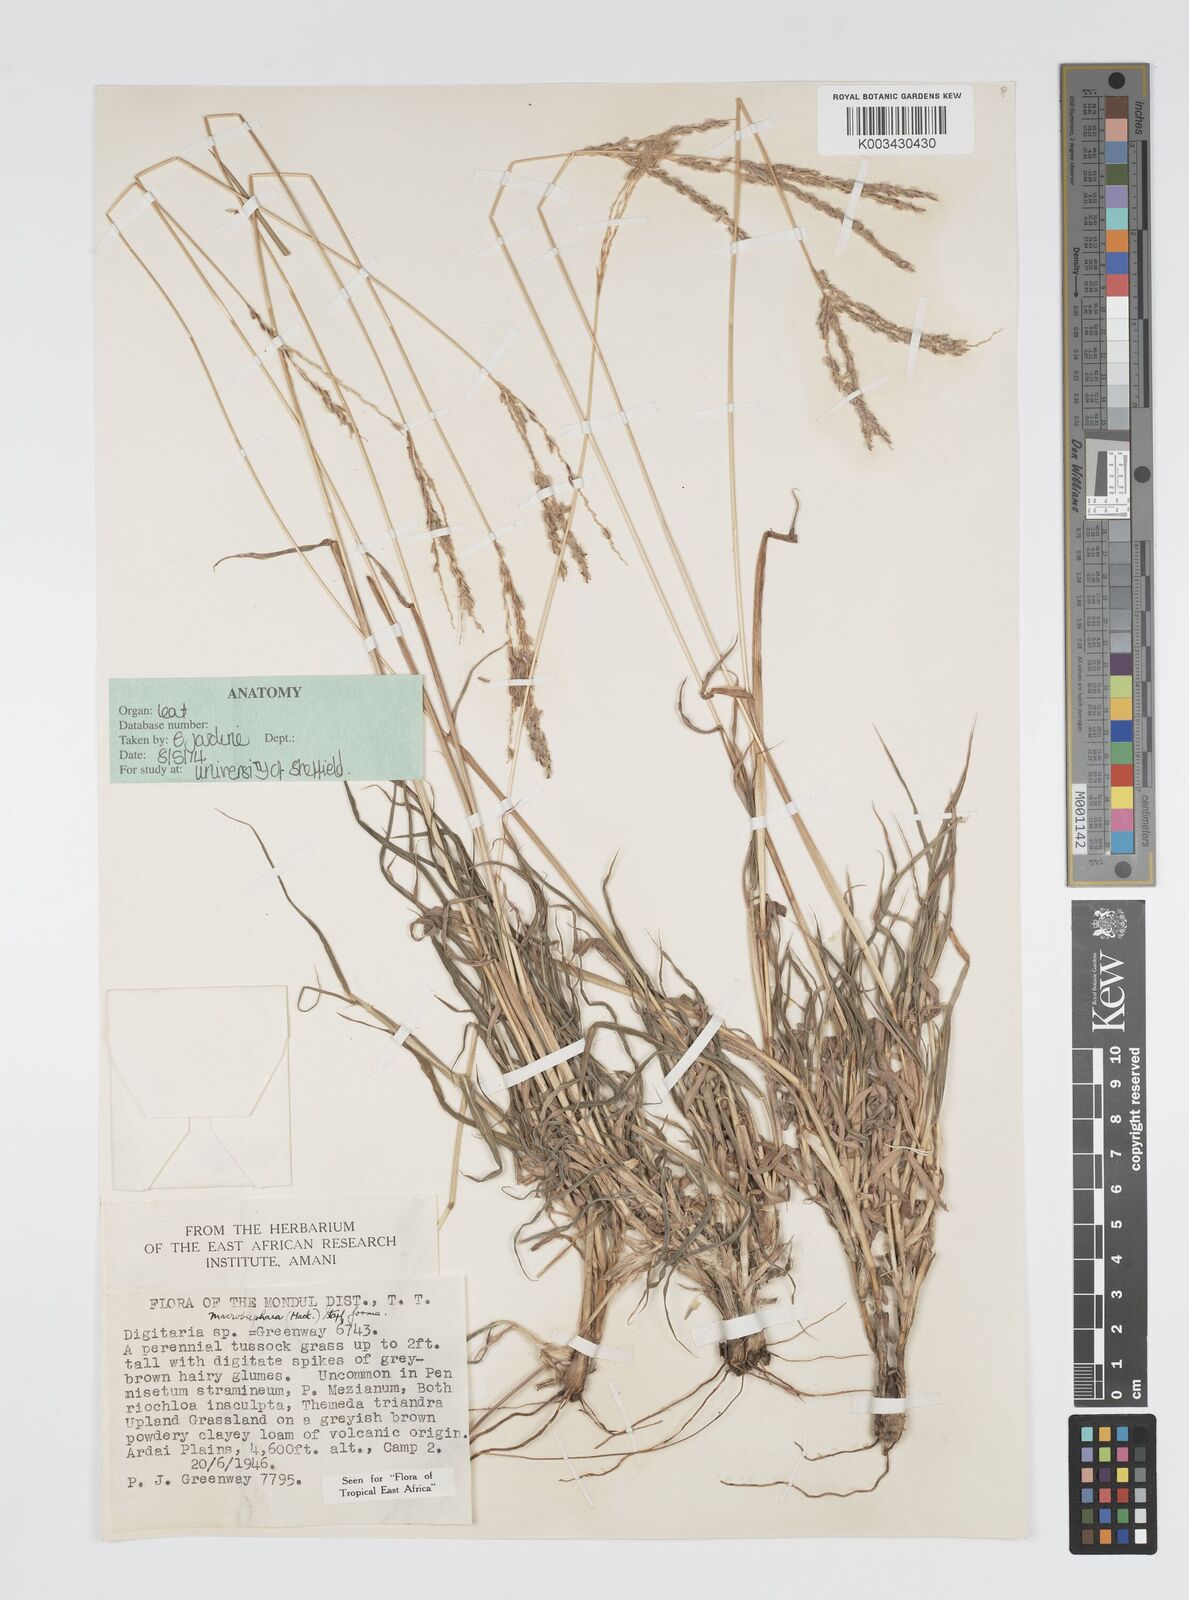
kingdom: Plantae
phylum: Tracheophyta
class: Liliopsida
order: Poales
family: Poaceae
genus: Digitaria
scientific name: Digitaria macroblephara
